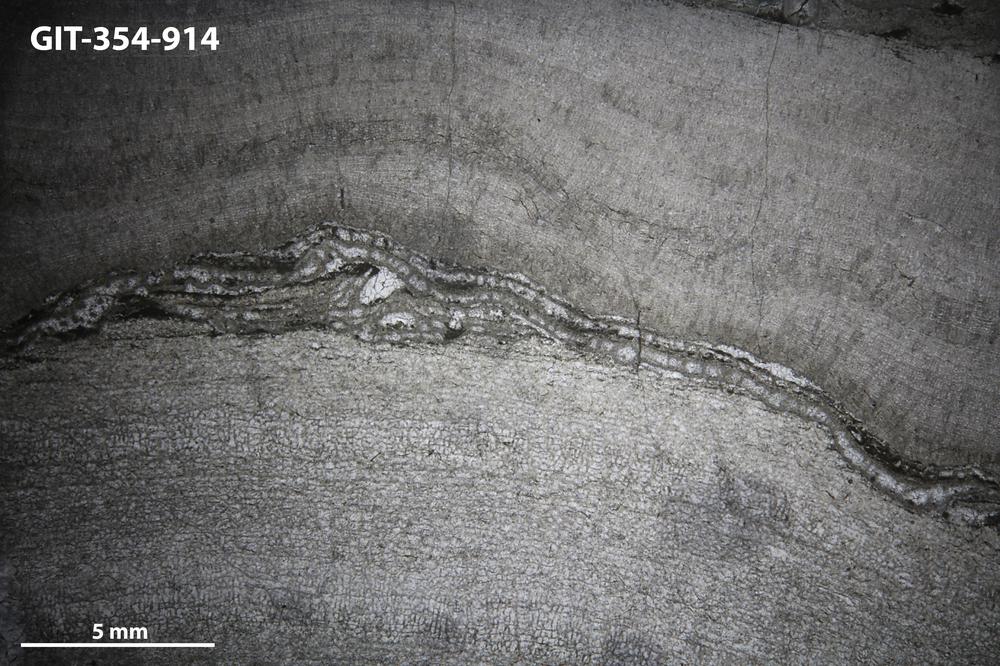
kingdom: Animalia
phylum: Porifera
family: Densastromatidae
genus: Densastroma
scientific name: Densastroma
